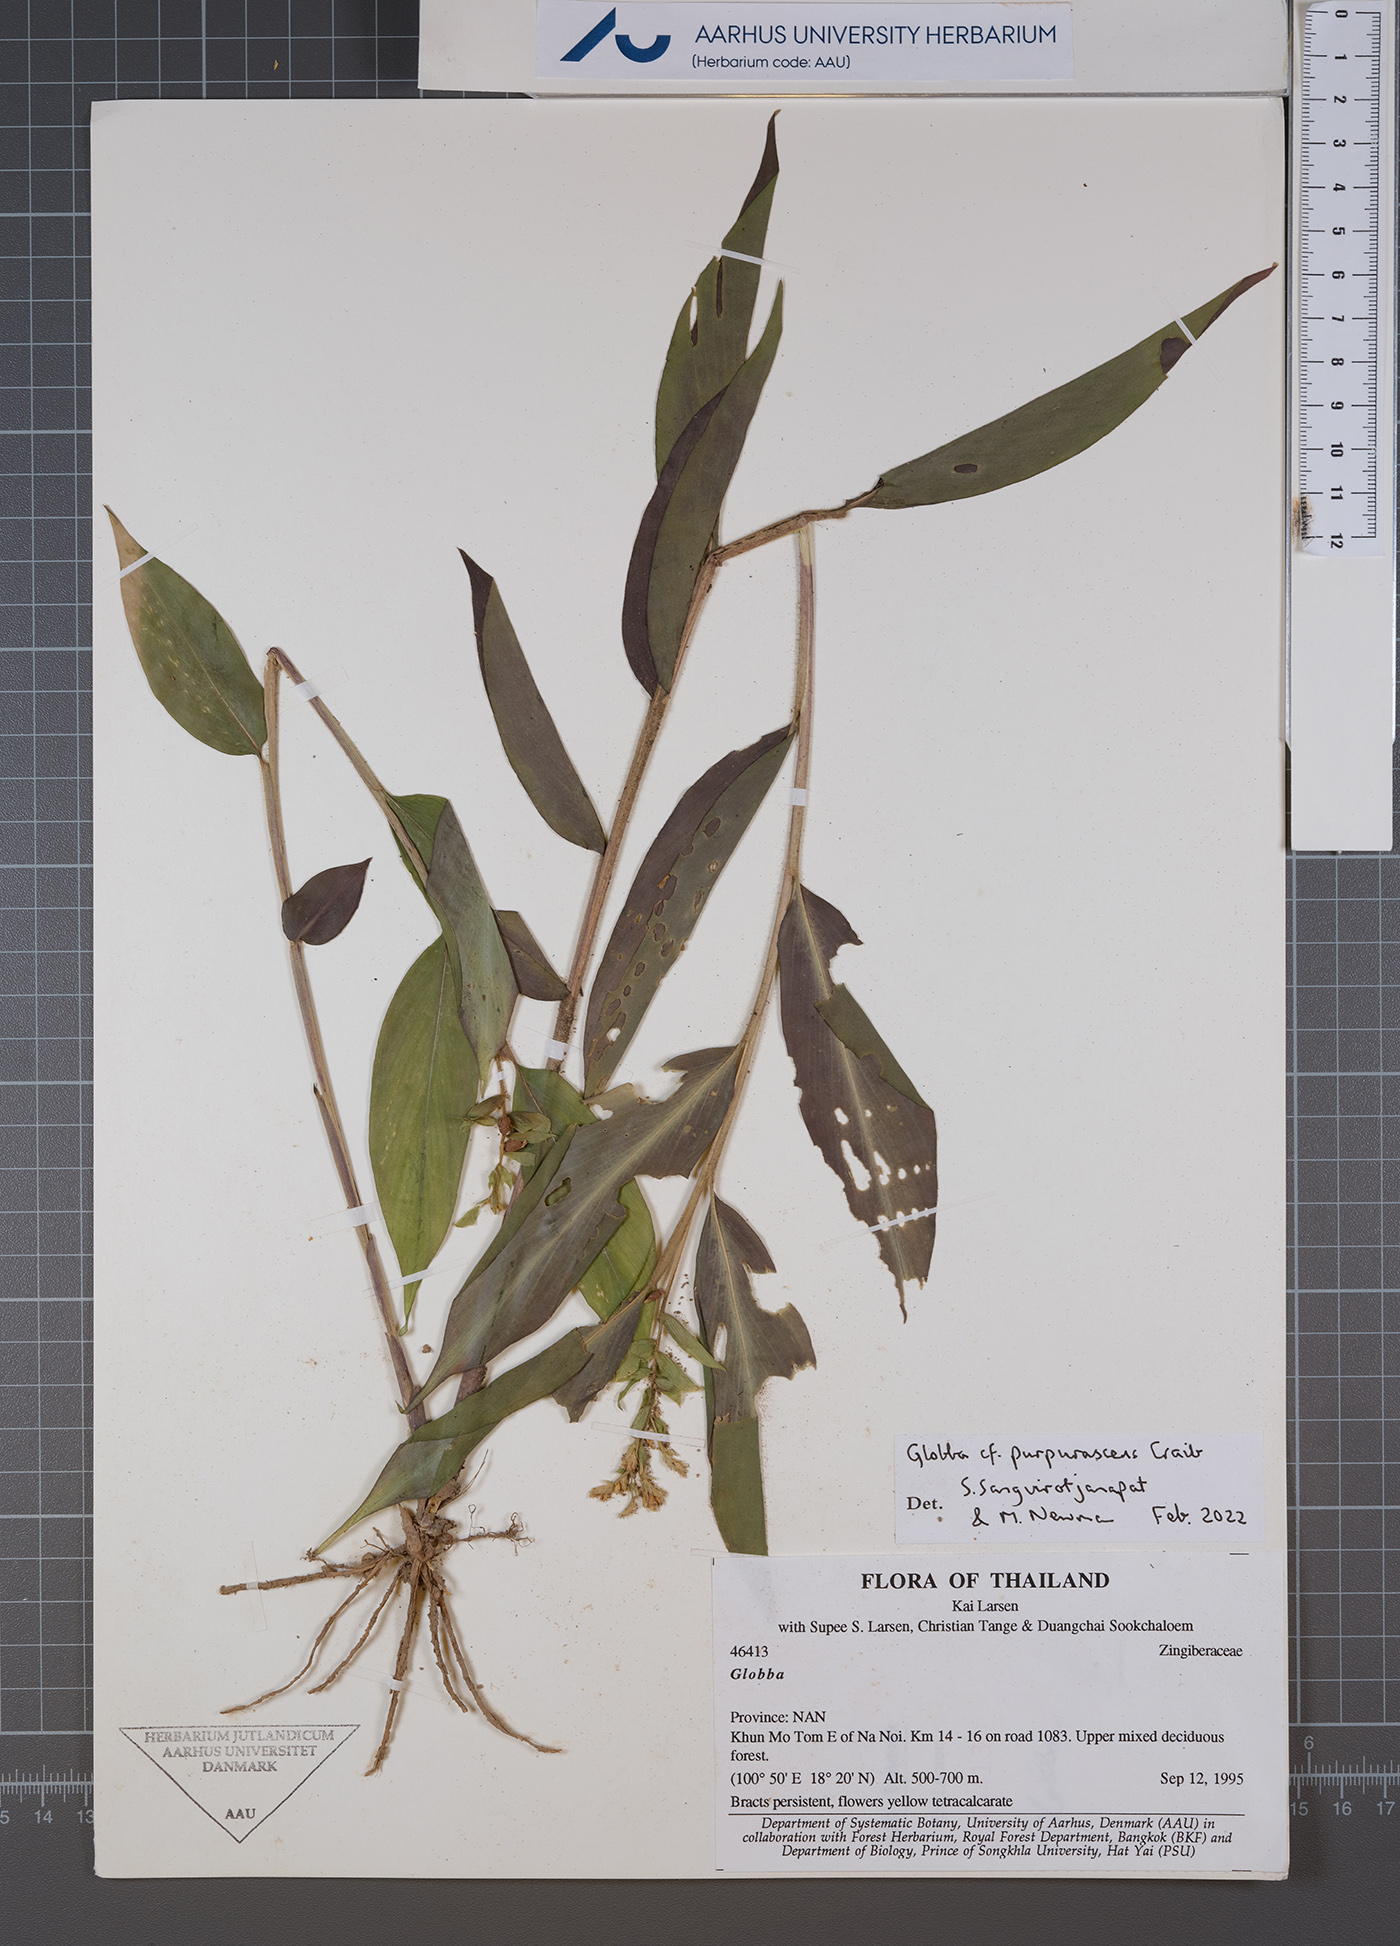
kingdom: Plantae
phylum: Tracheophyta
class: Liliopsida
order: Zingiberales
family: Zingiberaceae
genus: Globba
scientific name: Globba purpurascens
